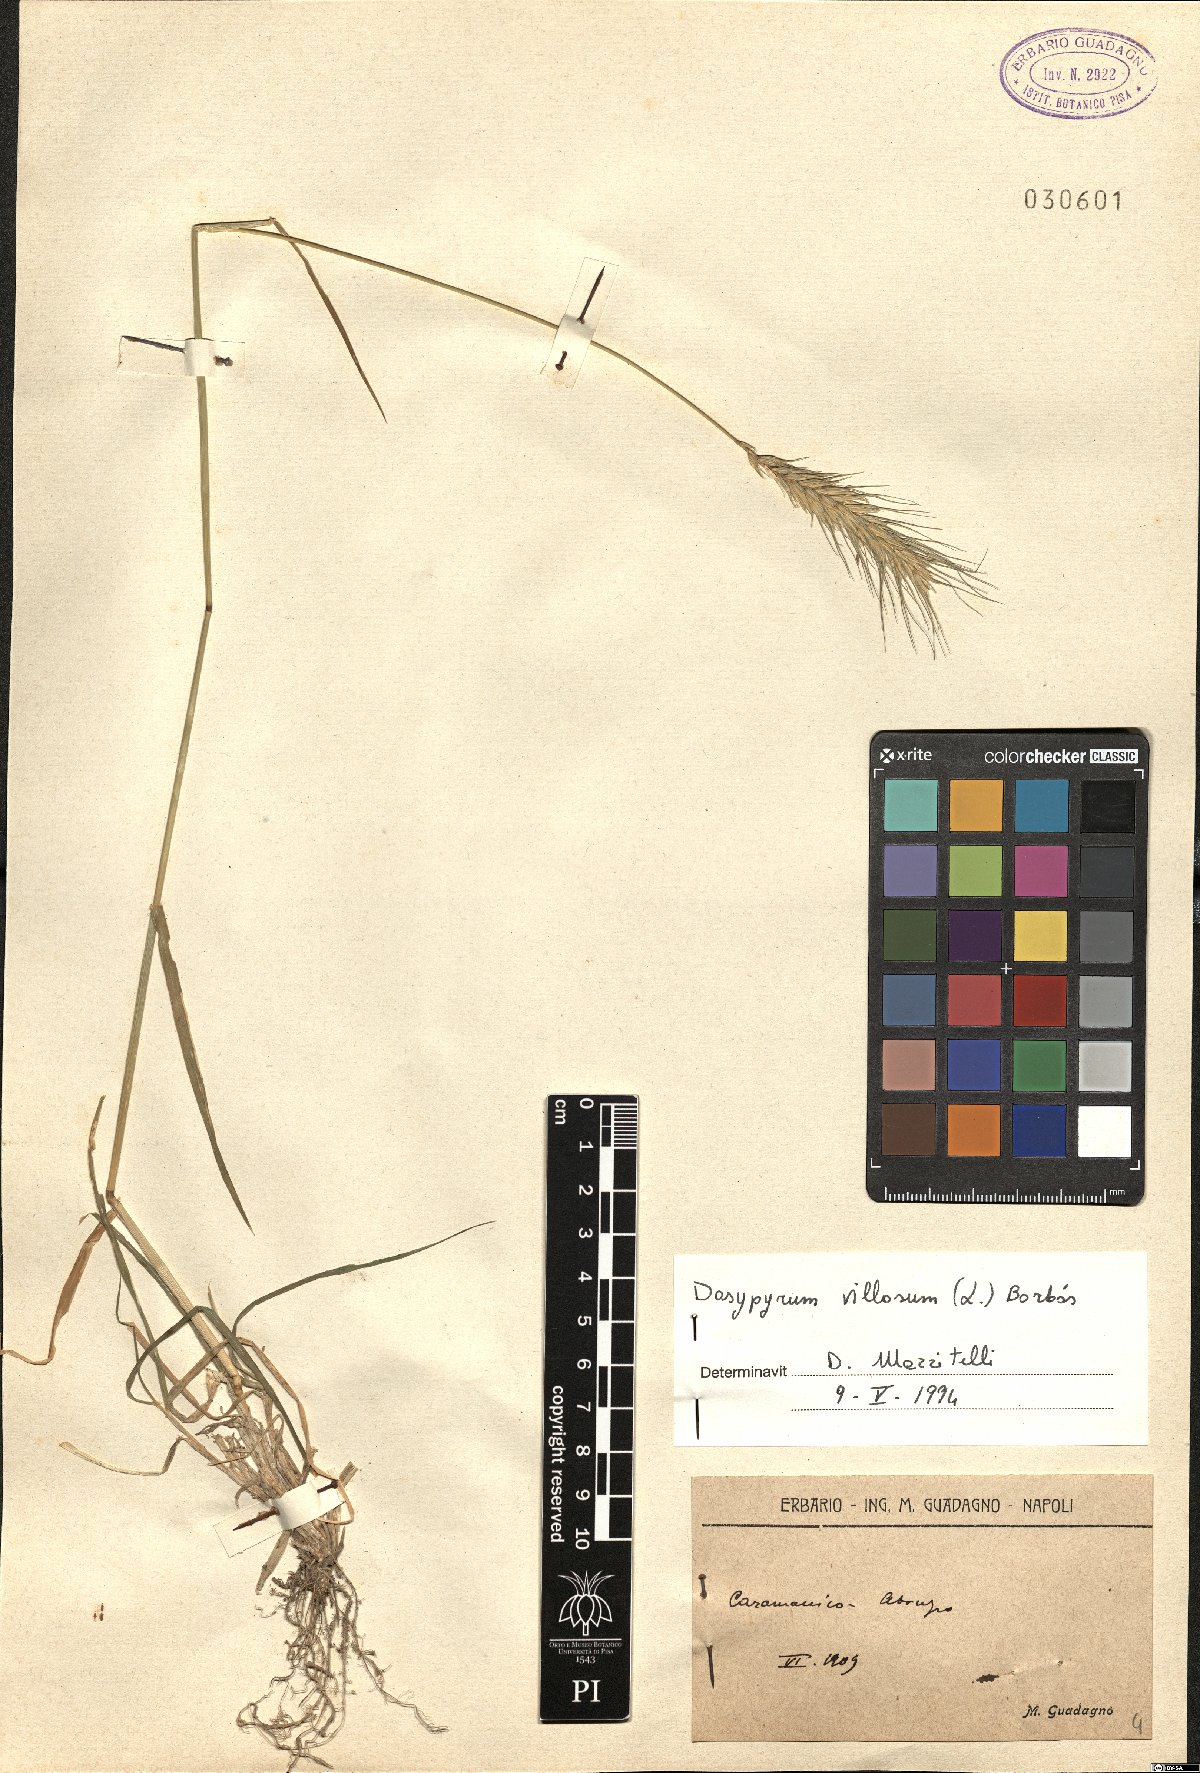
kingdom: Plantae
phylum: Tracheophyta
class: Liliopsida
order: Poales
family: Poaceae
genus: Dasypyrum
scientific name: Dasypyrum villosum
